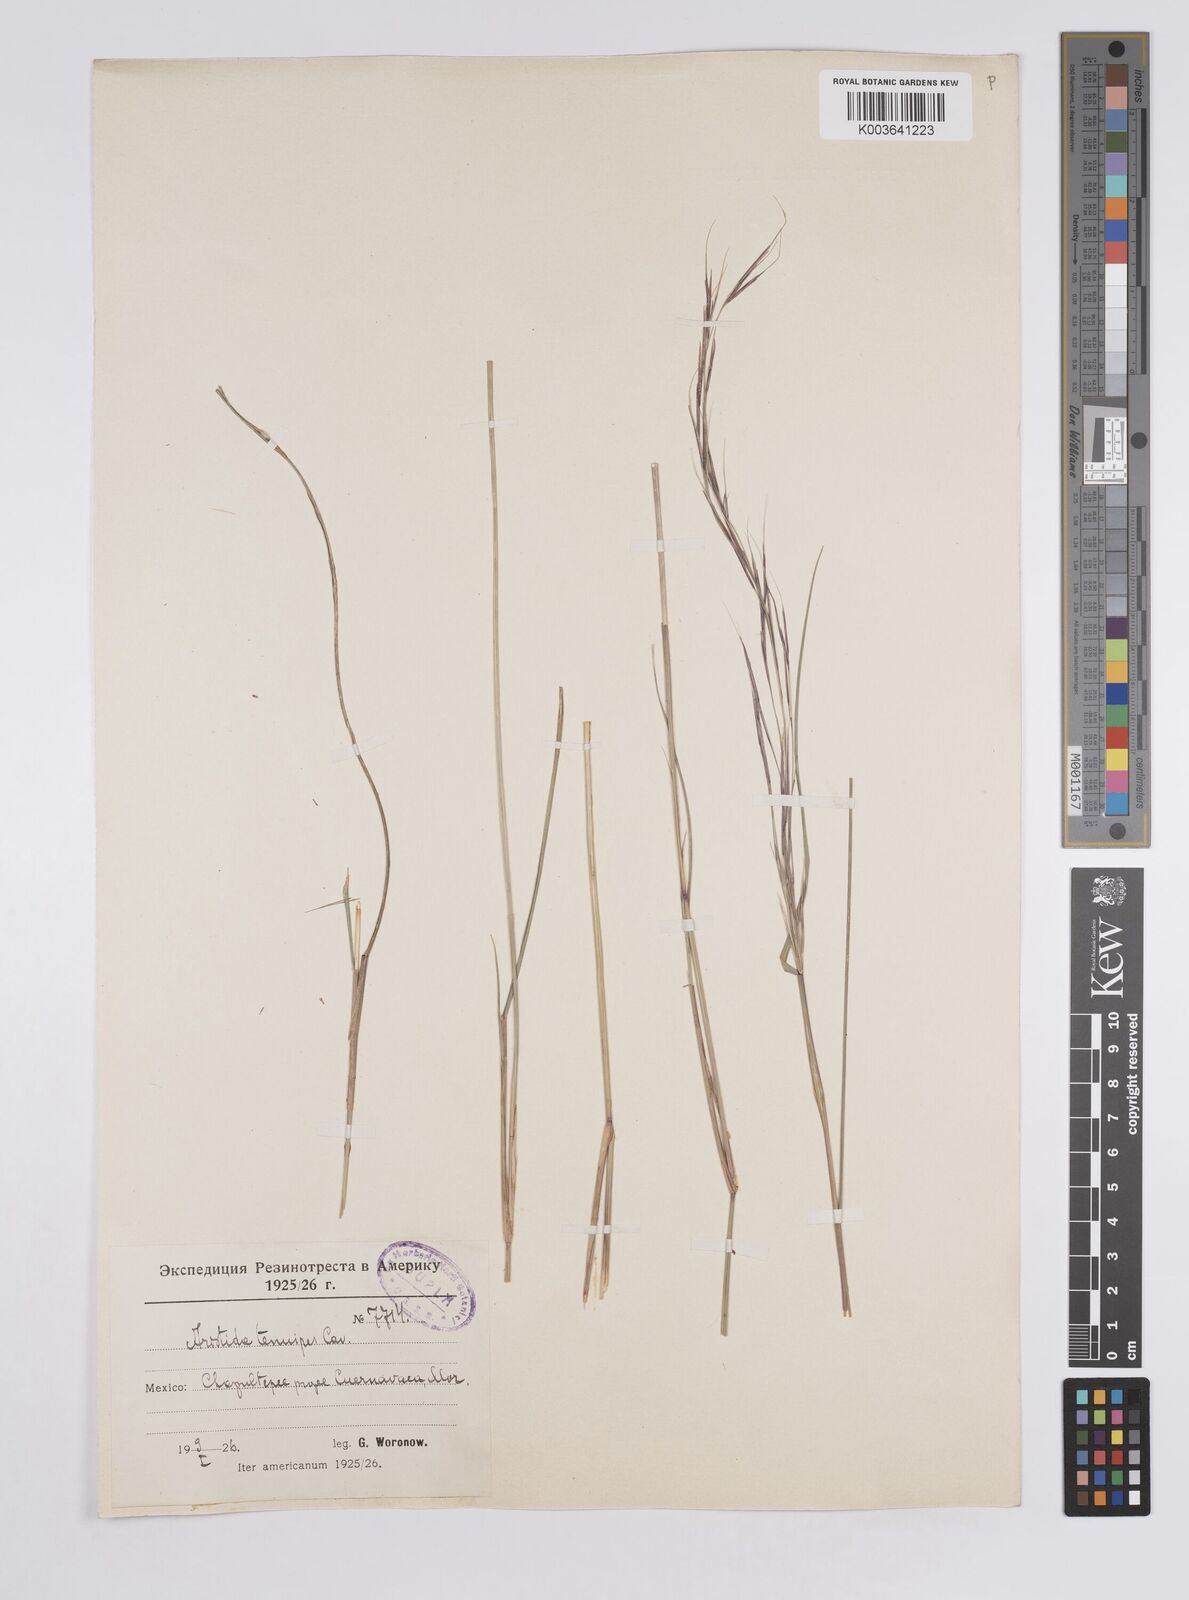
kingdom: Plantae
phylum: Tracheophyta
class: Liliopsida
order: Poales
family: Poaceae
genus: Aristida
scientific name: Aristida
